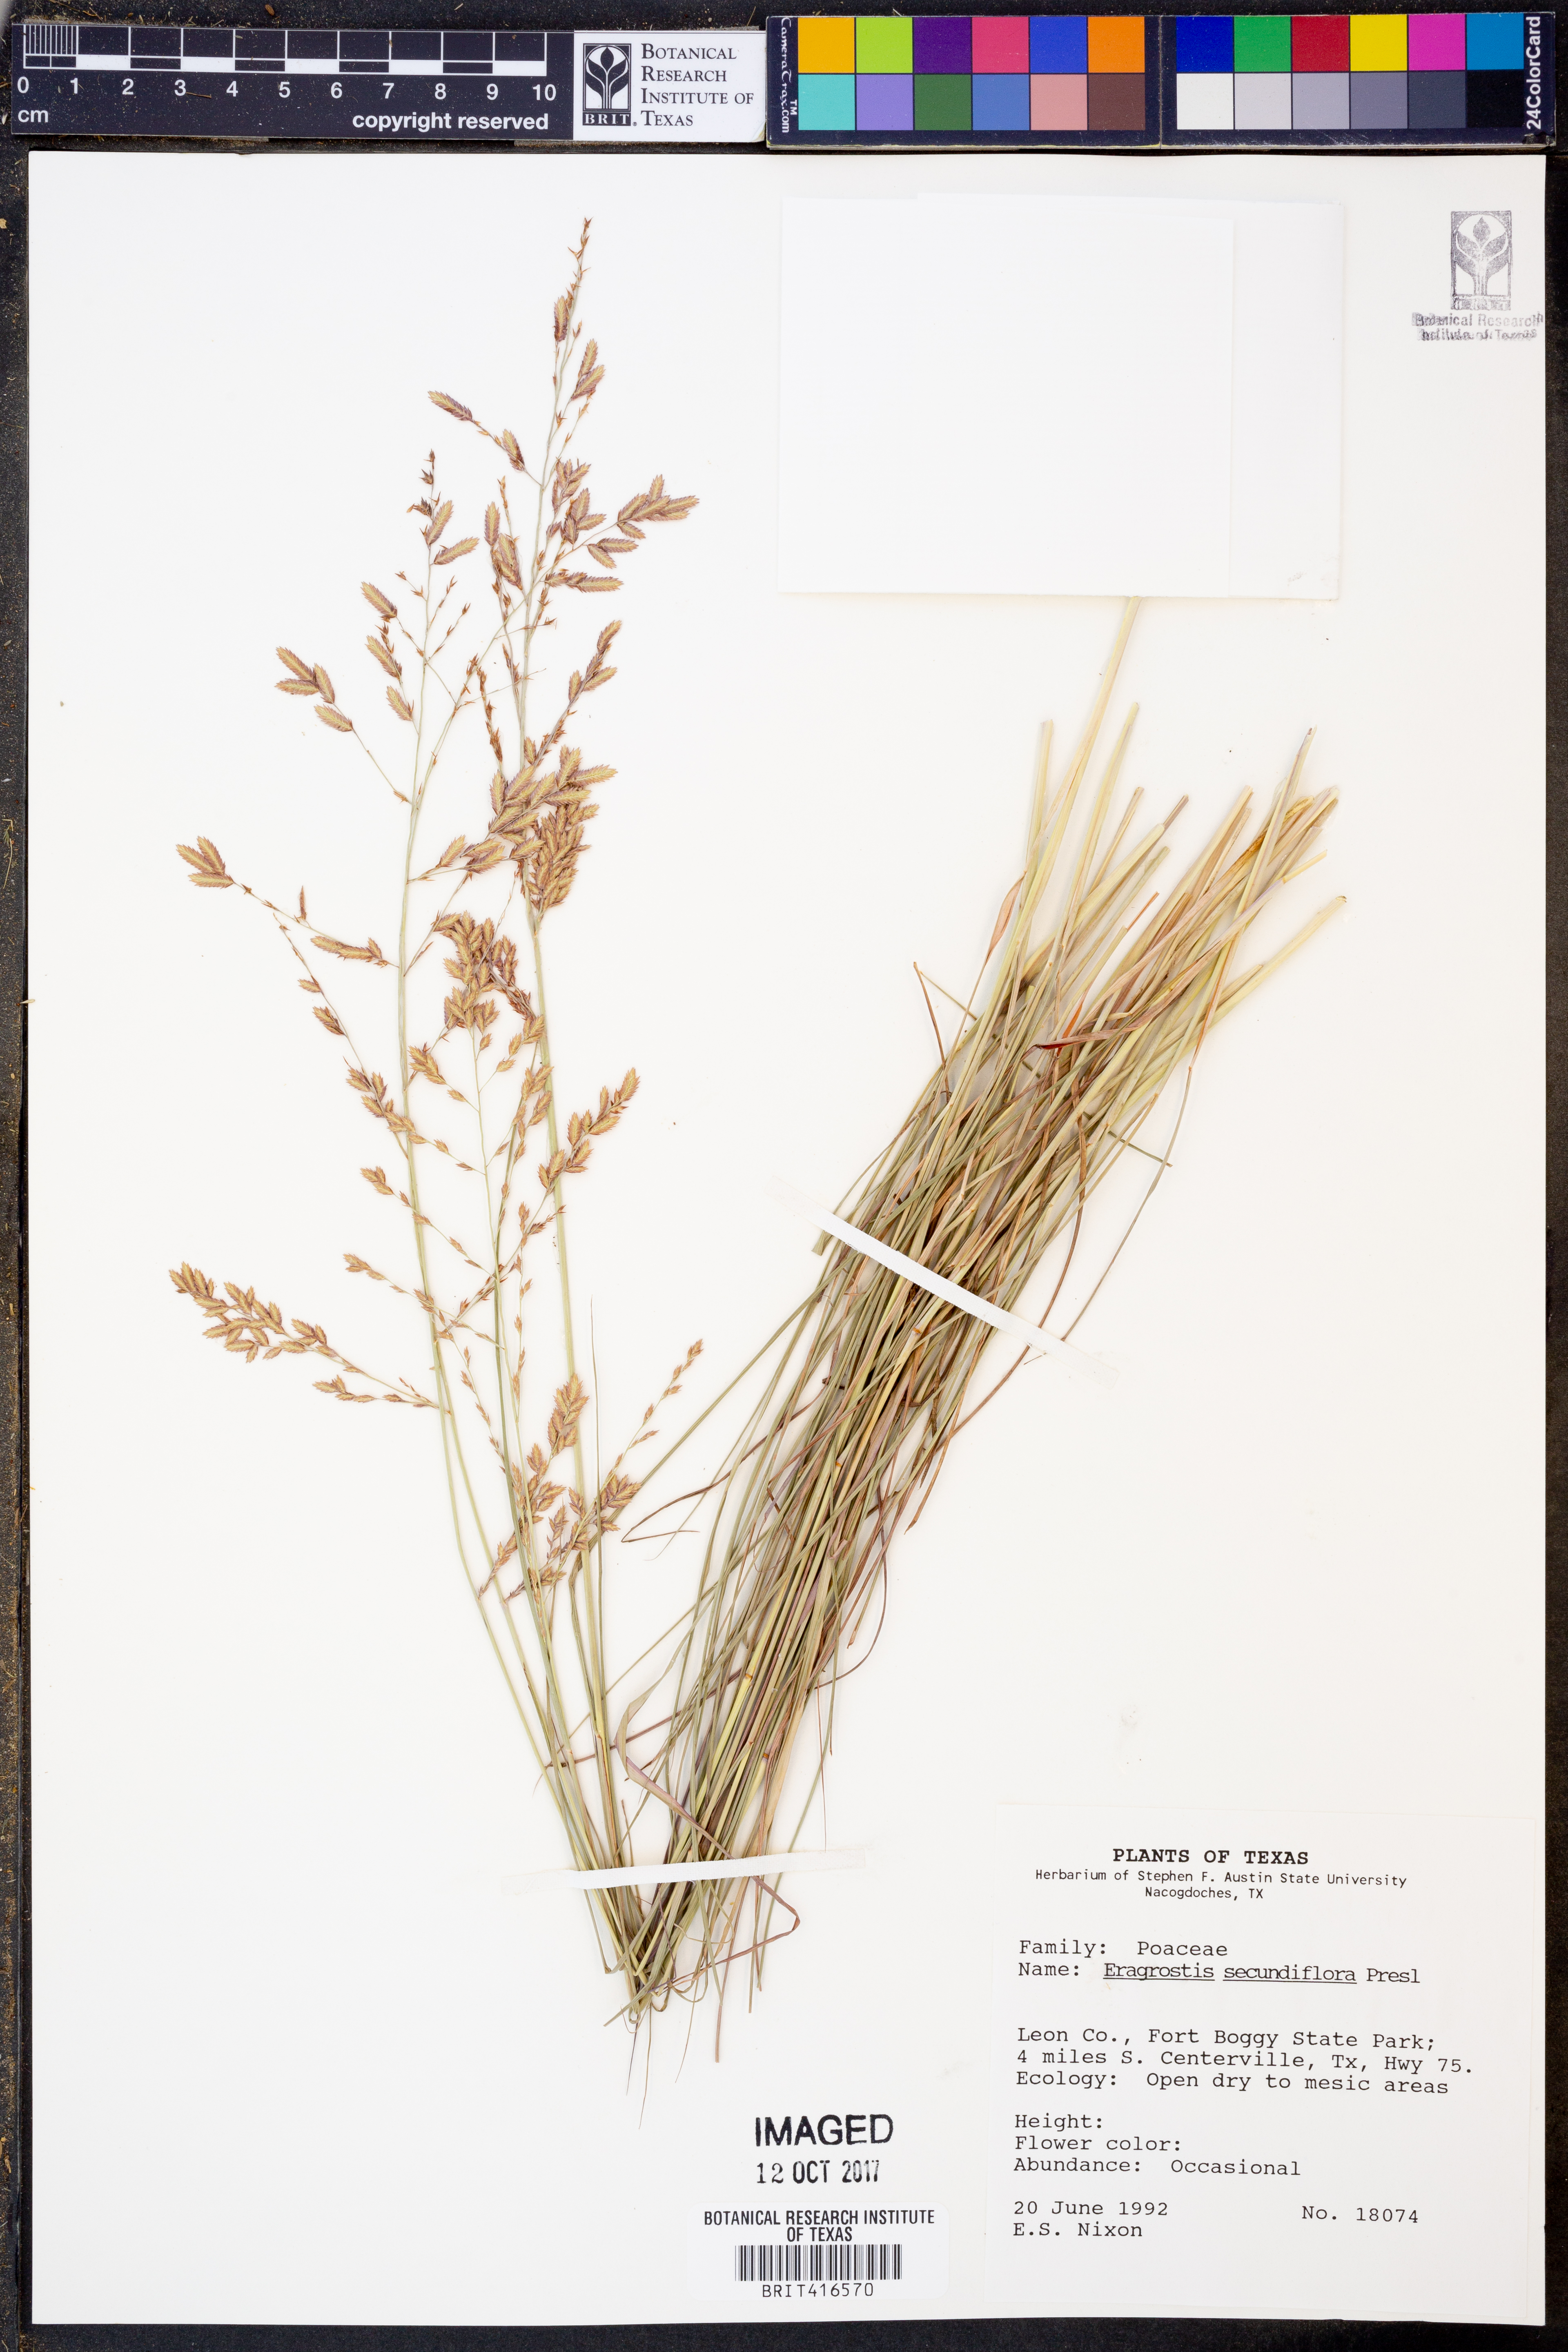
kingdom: Plantae
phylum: Tracheophyta
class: Liliopsida
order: Poales
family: Poaceae
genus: Eragrostis
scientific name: Eragrostis secundiflora
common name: Red love grass
